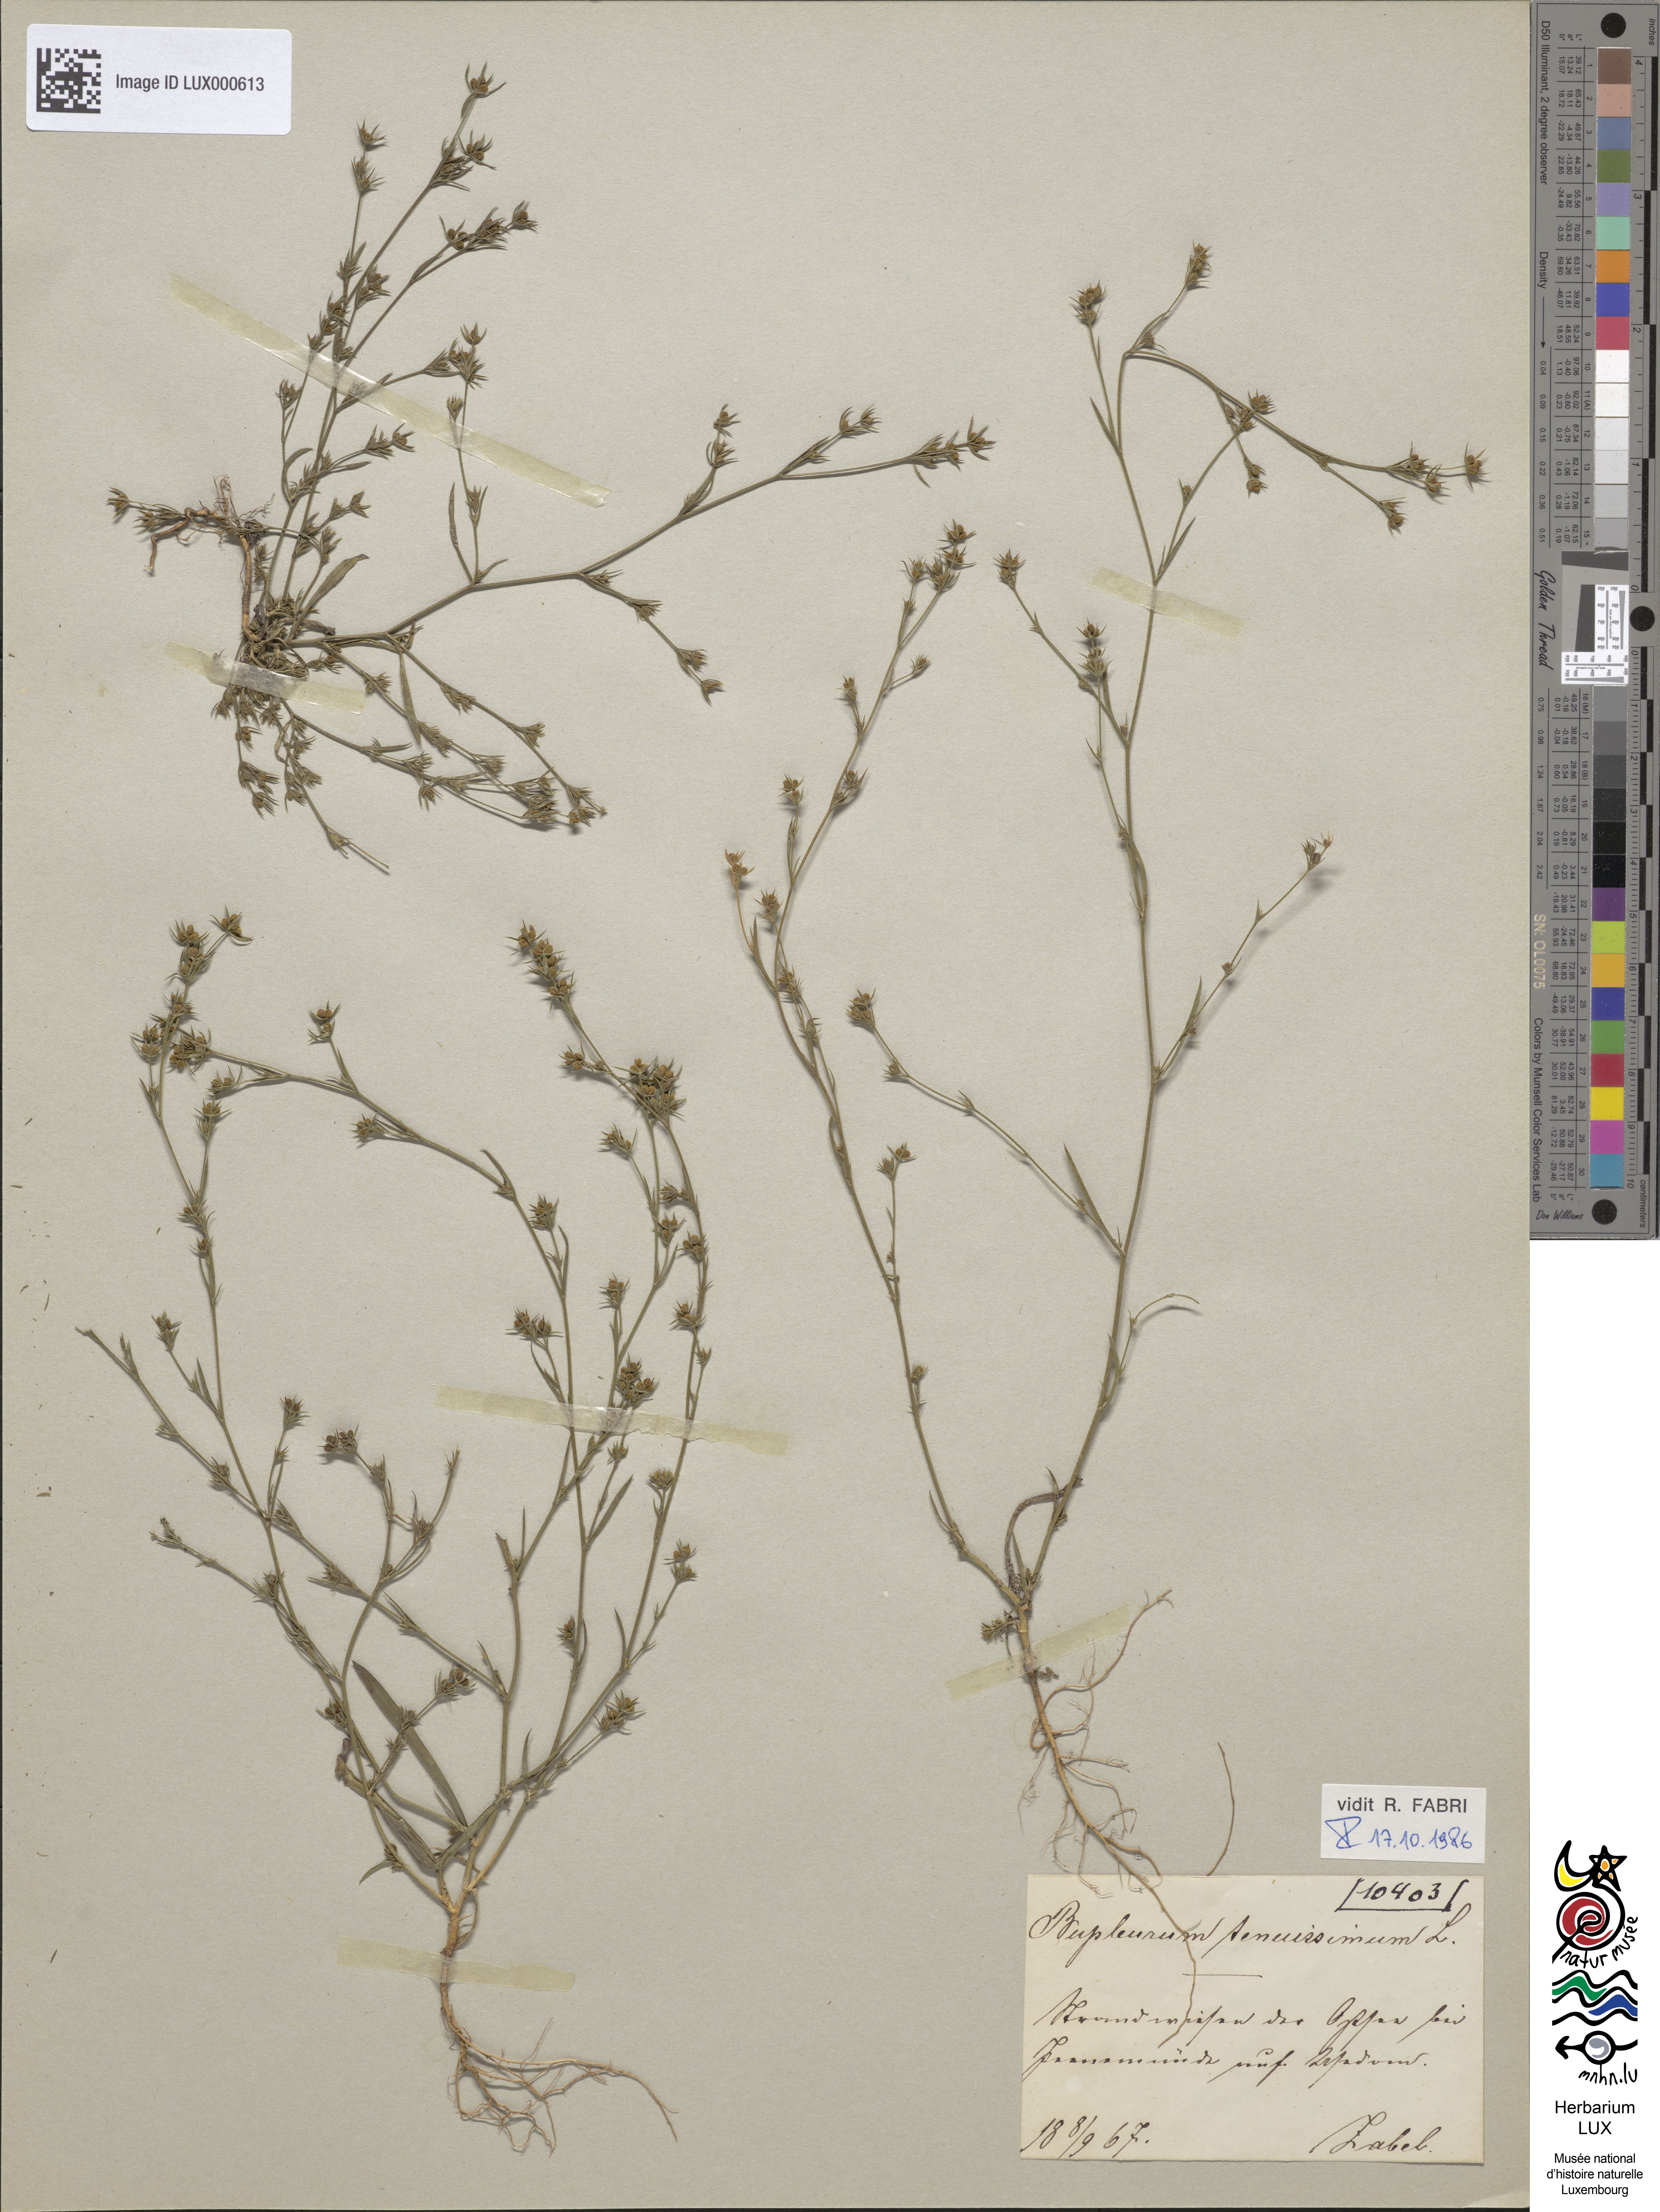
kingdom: Plantae
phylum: Tracheophyta
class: Magnoliopsida
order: Apiales
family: Apiaceae
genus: Bupleurum
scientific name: Bupleurum tenuissimum
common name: Slender hare's-ear
